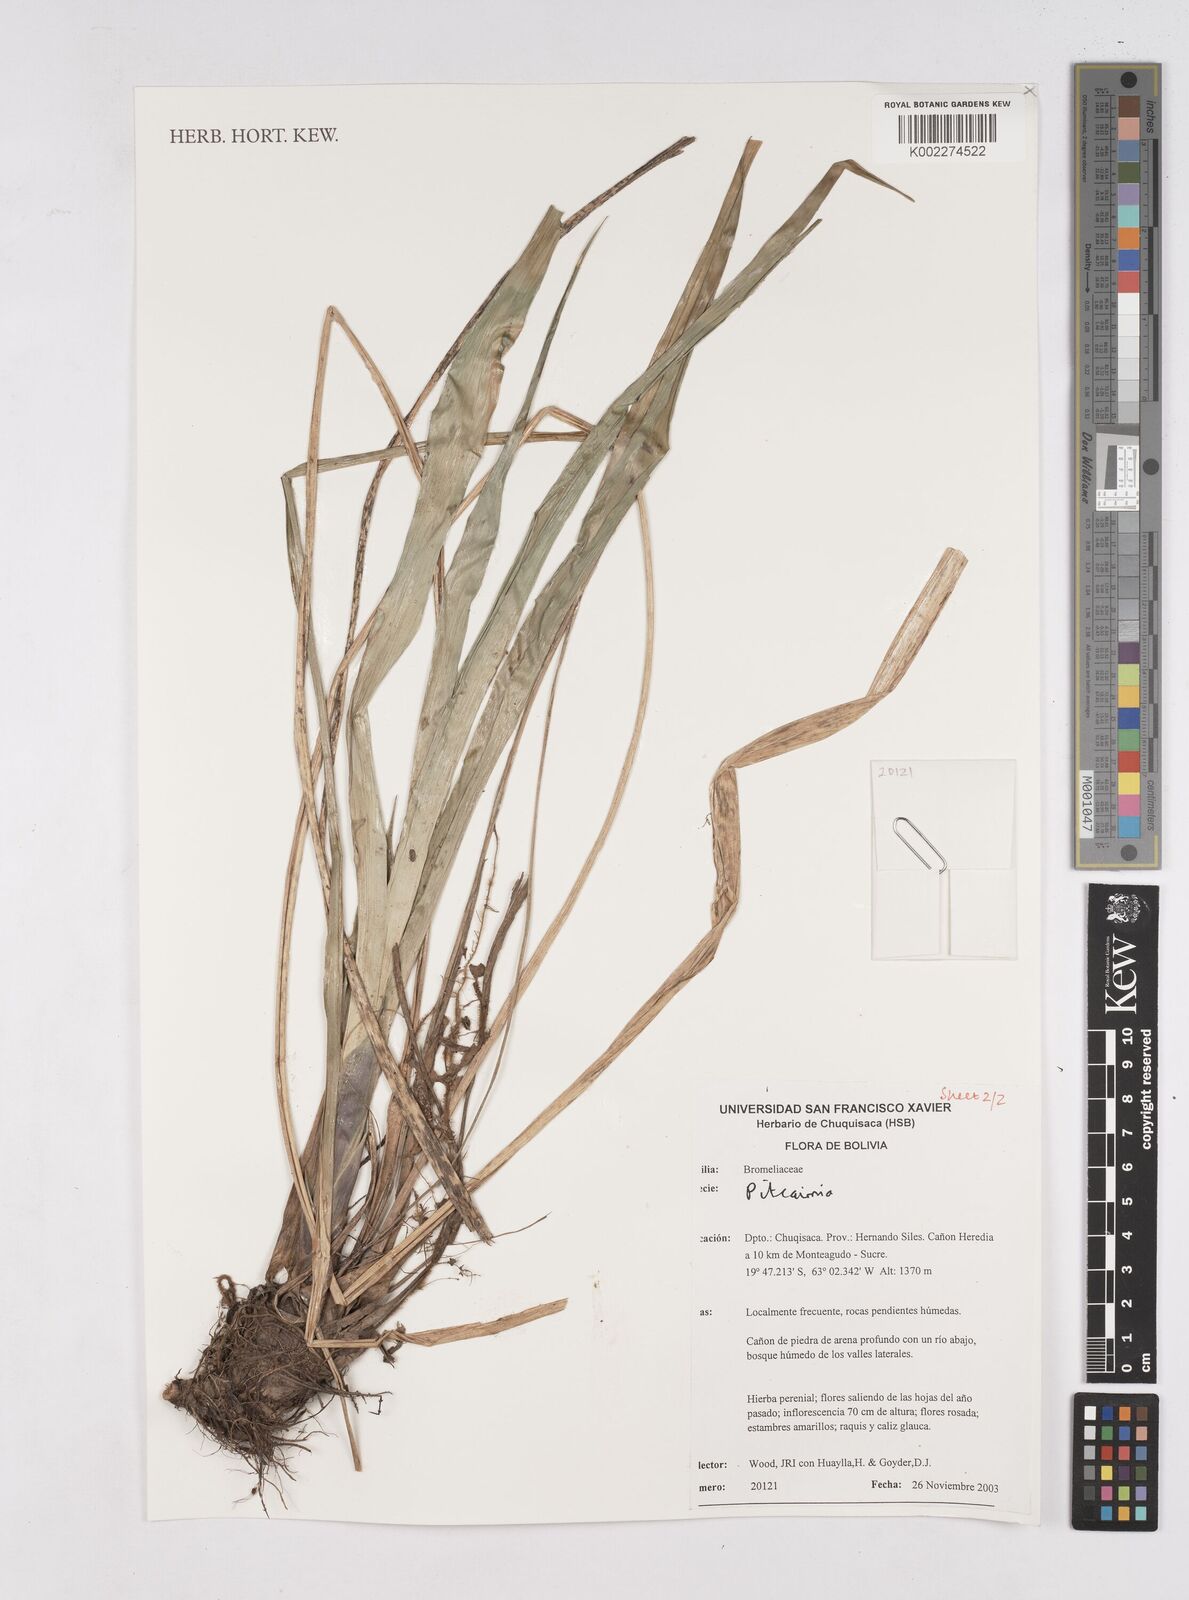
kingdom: Plantae
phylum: Tracheophyta
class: Liliopsida
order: Poales
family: Bromeliaceae
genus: Pitcairnia
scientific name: Pitcairnia
